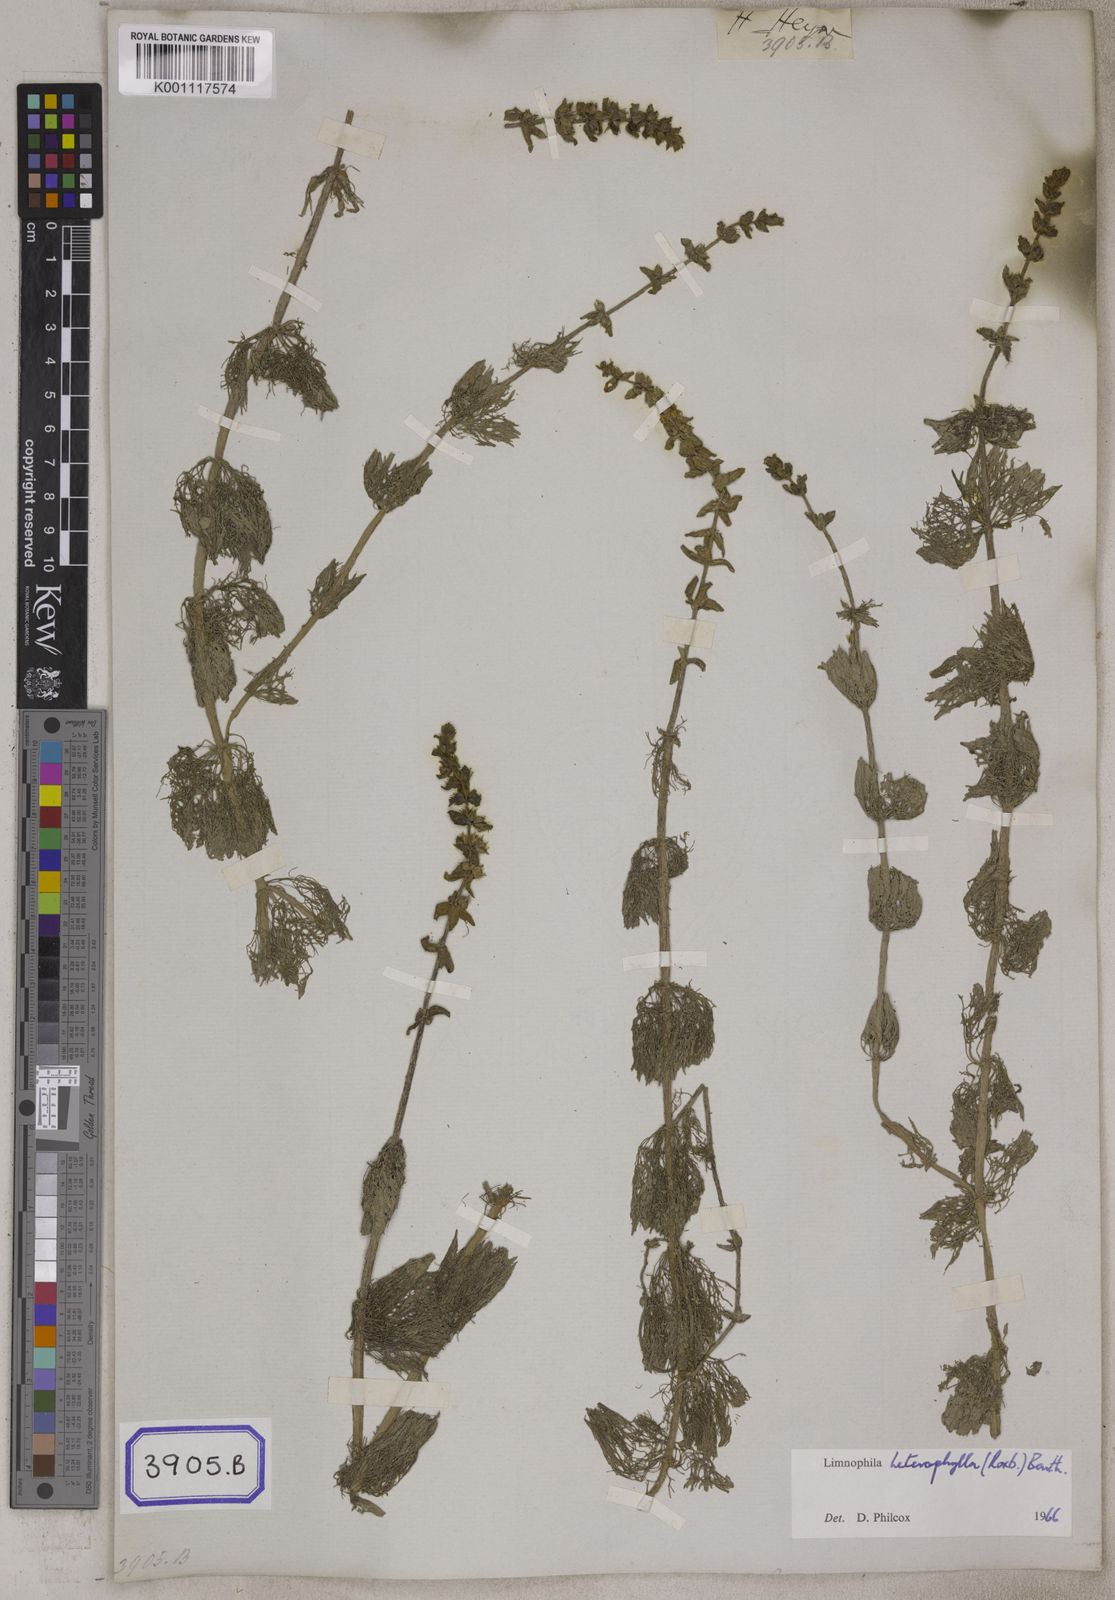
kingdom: Plantae
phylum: Tracheophyta
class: Magnoliopsida
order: Lamiales
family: Plantaginaceae
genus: Limnophila
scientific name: Limnophila heterophylla
